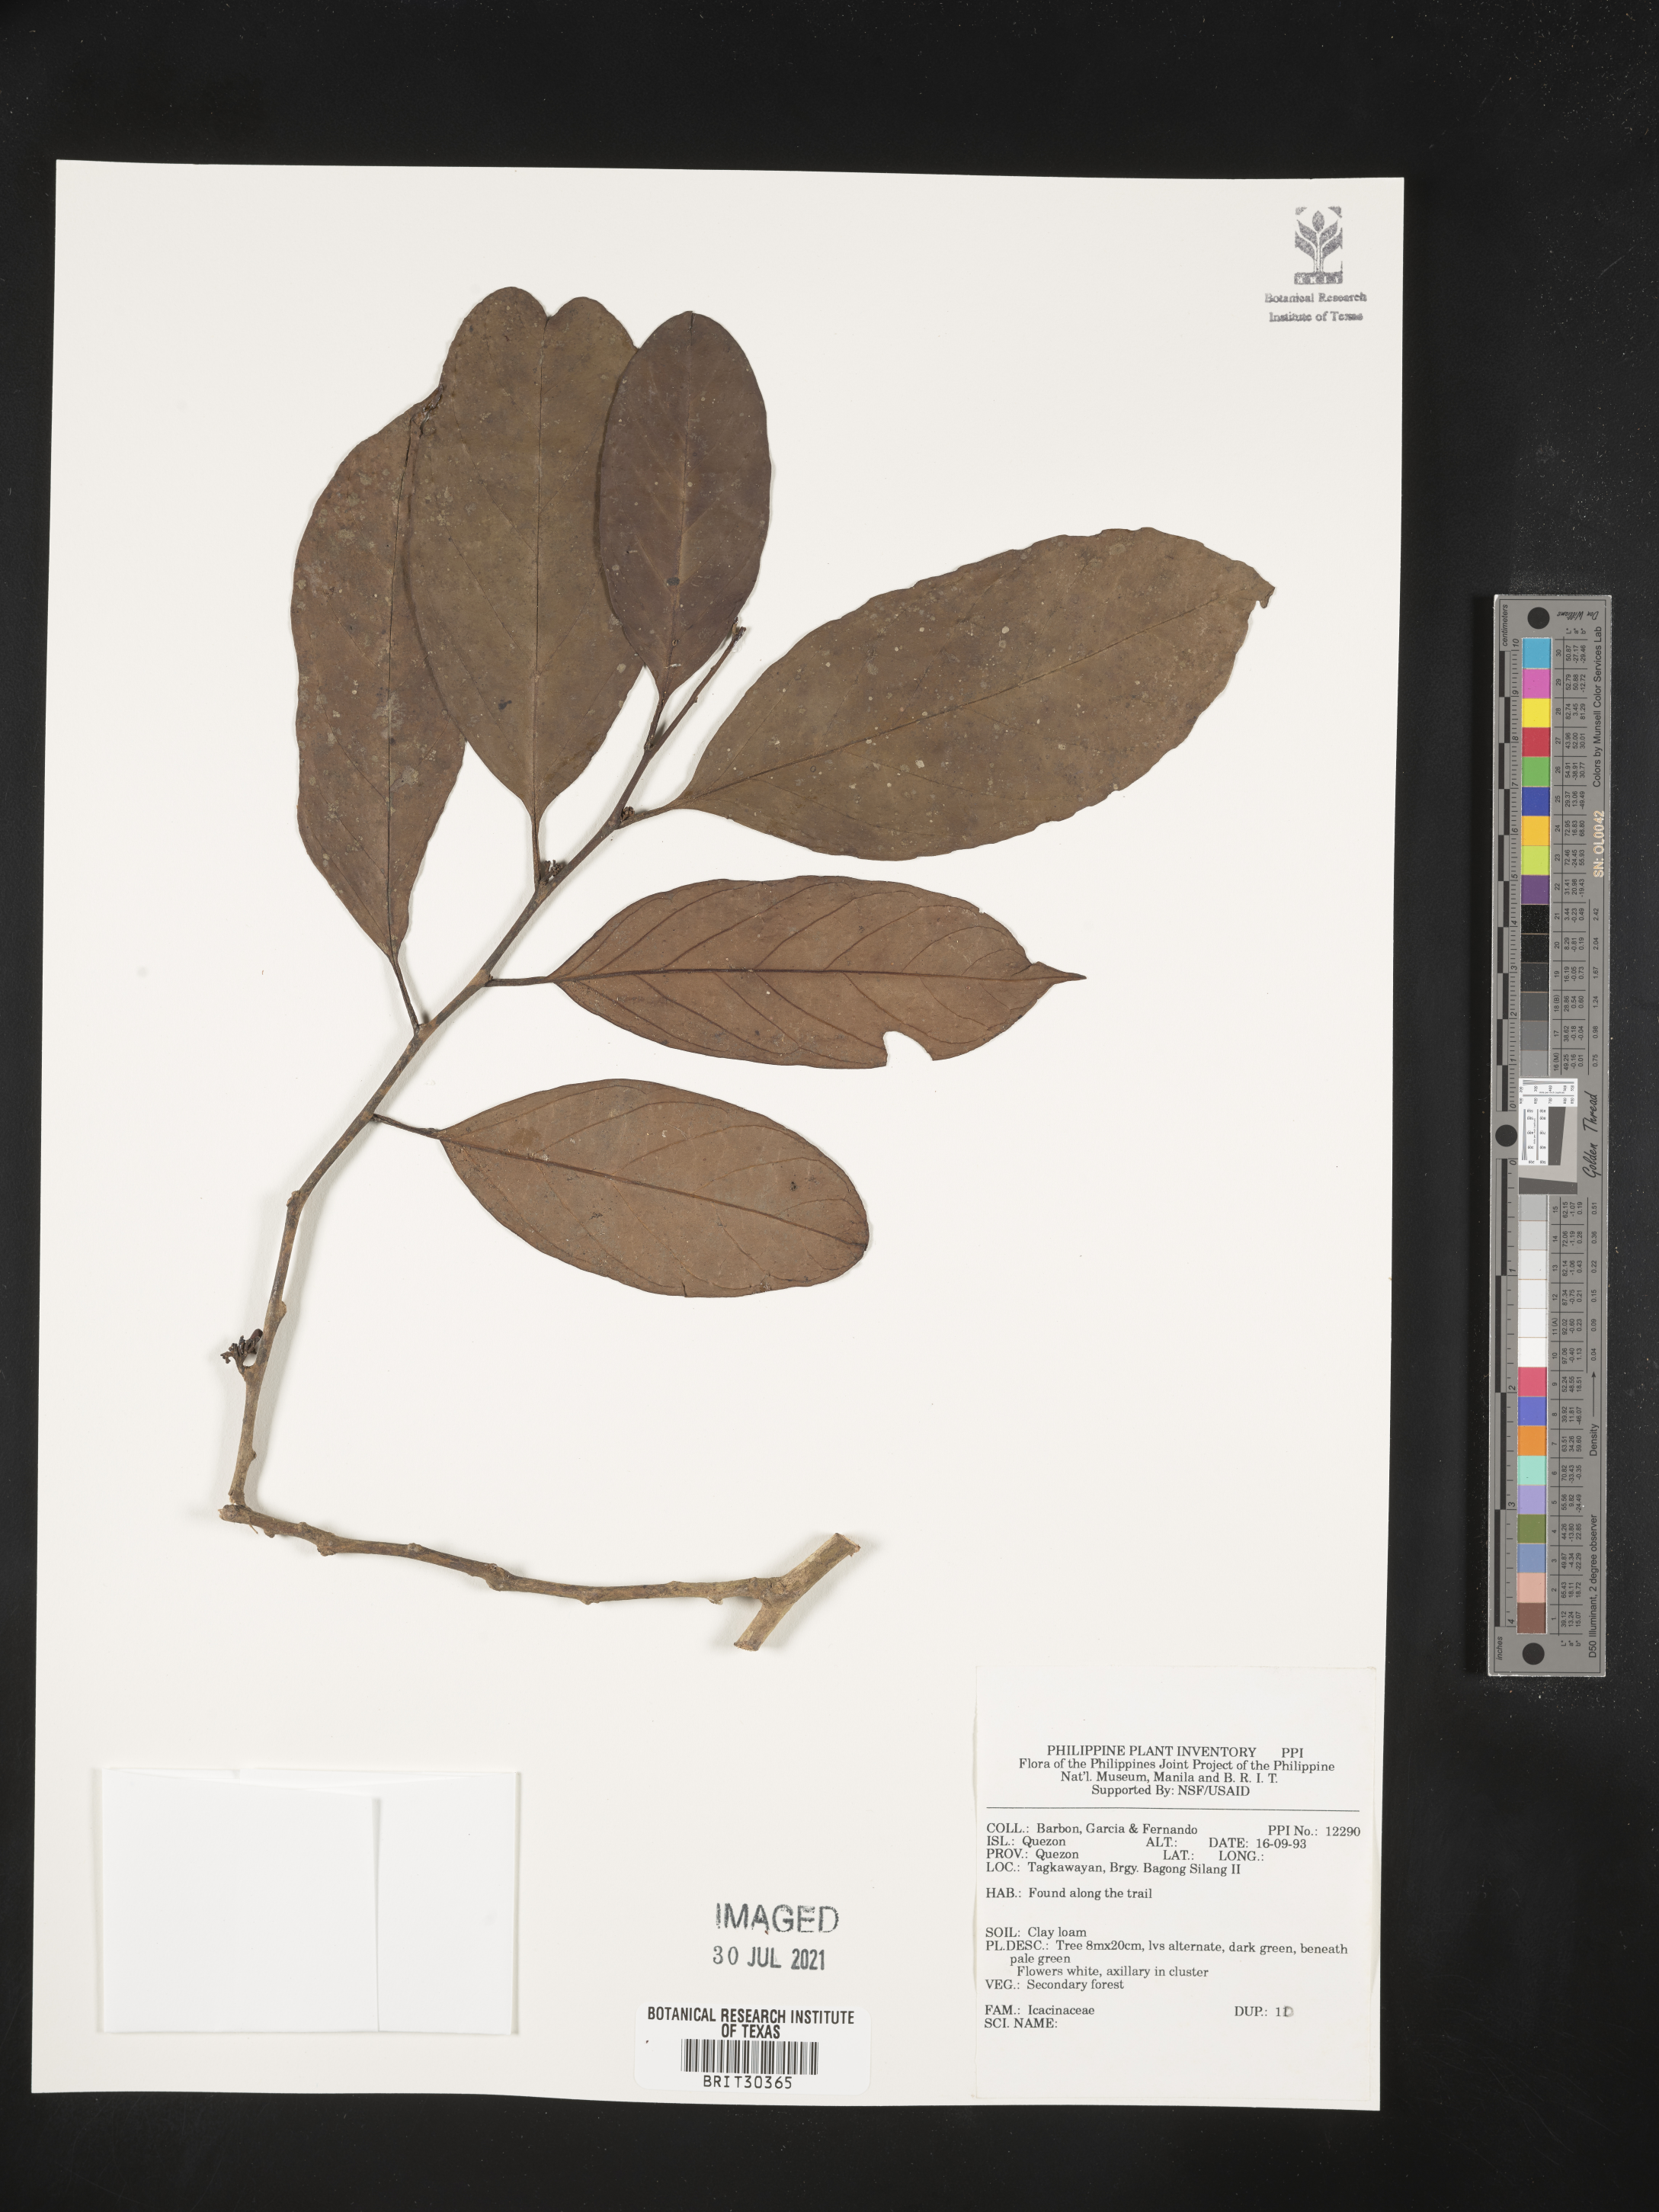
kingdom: Plantae
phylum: Tracheophyta
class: Magnoliopsida
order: Icacinales
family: Icacinaceae
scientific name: Icacinaceae
